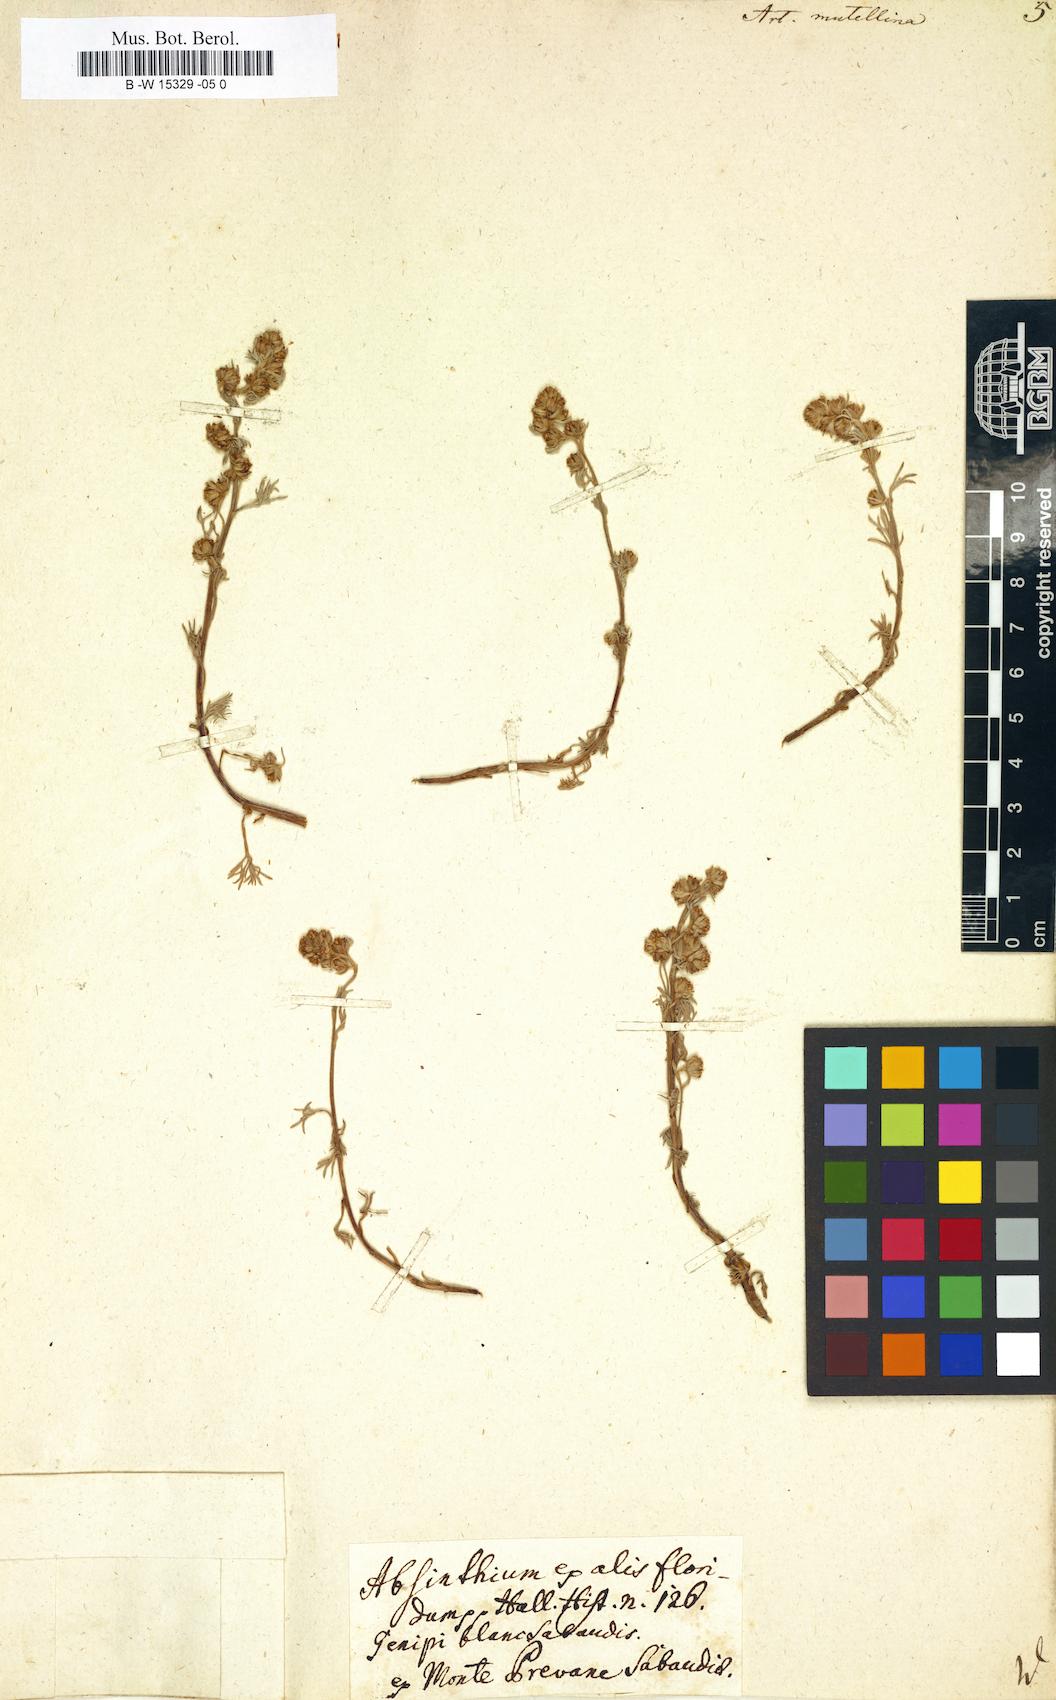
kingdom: Plantae
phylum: Tracheophyta
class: Magnoliopsida
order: Asterales
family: Asteraceae
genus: Artemisia
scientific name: Artemisia mutellina
